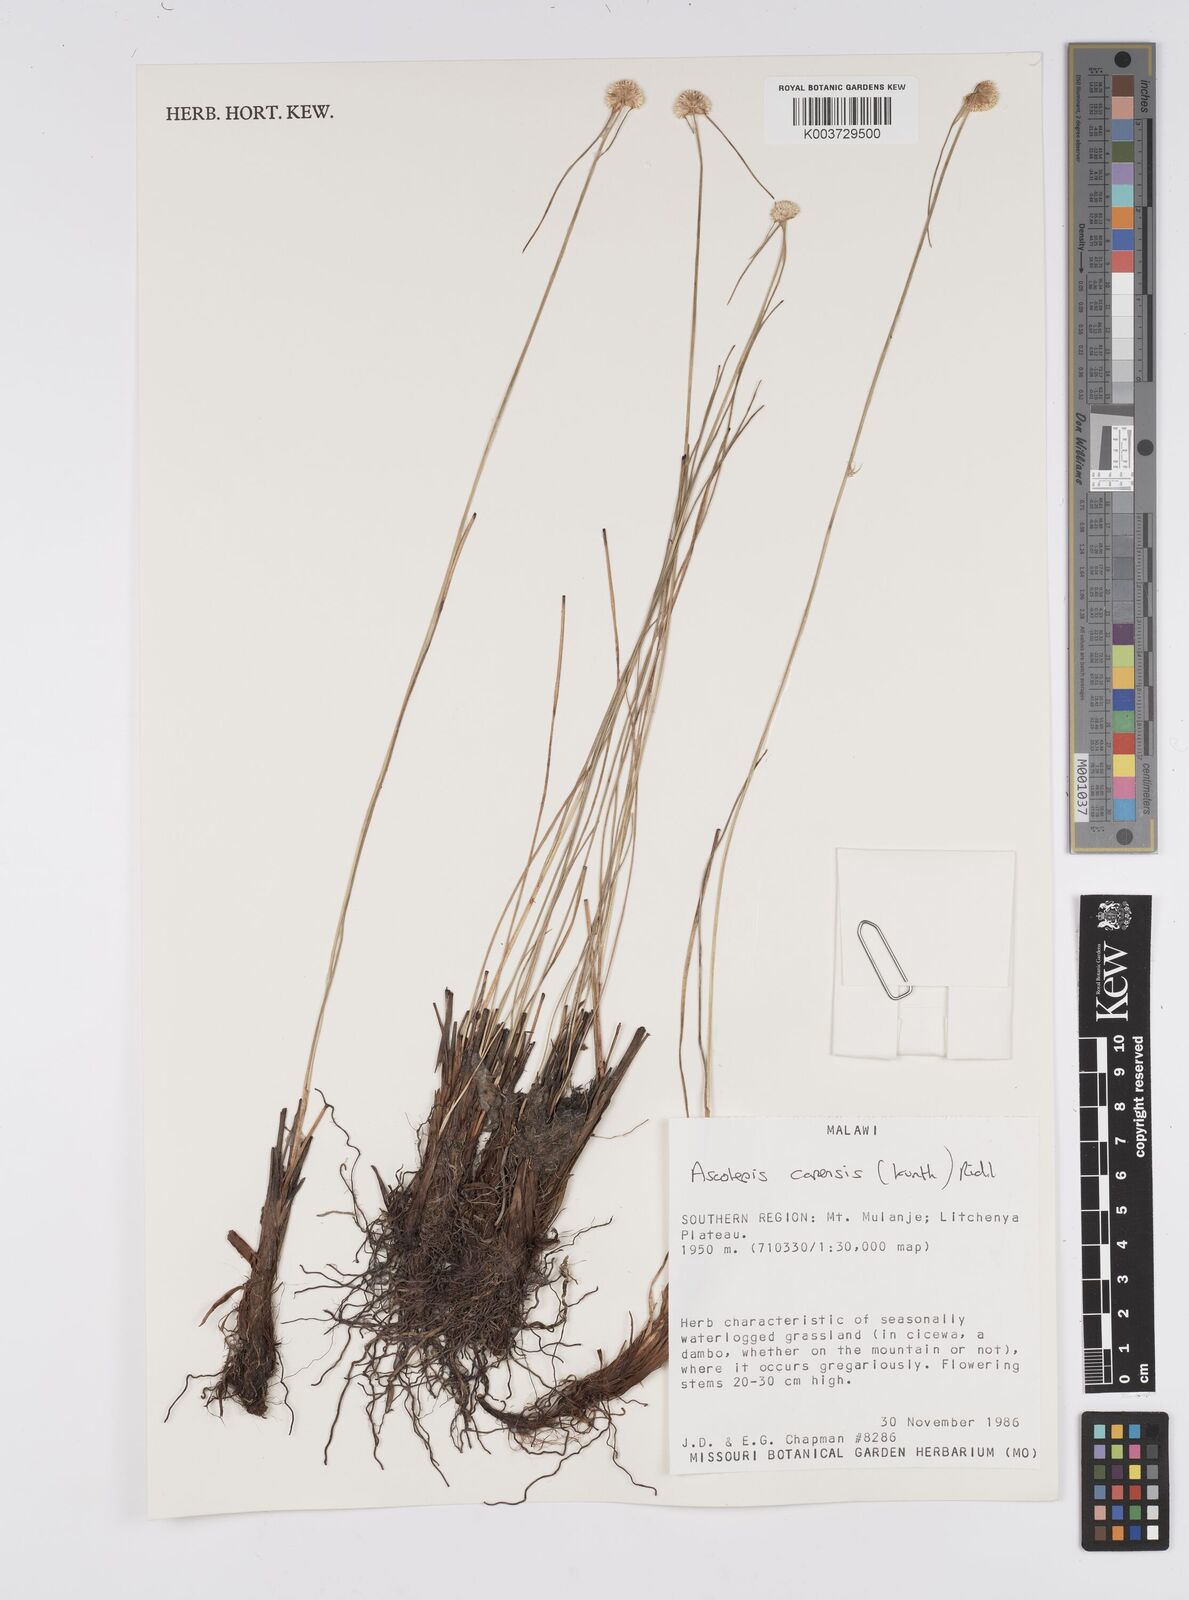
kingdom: Plantae
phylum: Tracheophyta
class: Liliopsida
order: Poales
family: Cyperaceae
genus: Cyperus
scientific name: Cyperus
